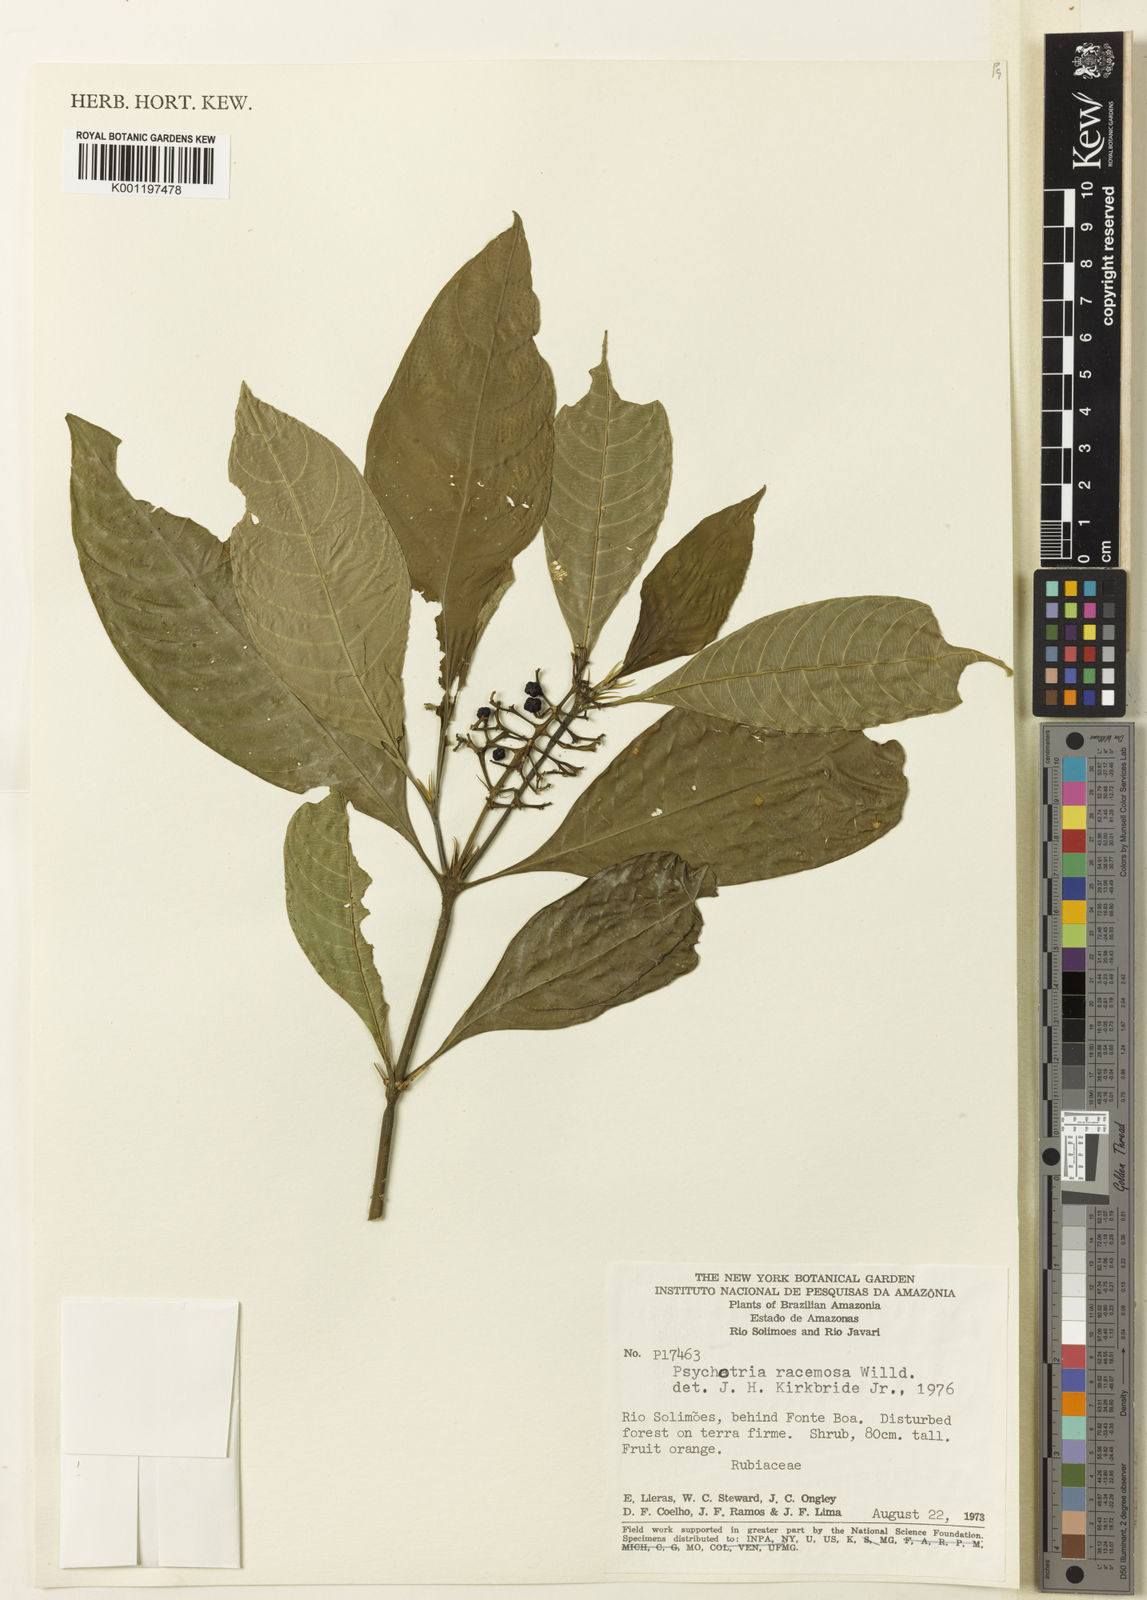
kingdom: Plantae
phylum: Tracheophyta
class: Magnoliopsida
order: Gentianales
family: Rubiaceae
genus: Palicourea
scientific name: Palicourea racemosa
